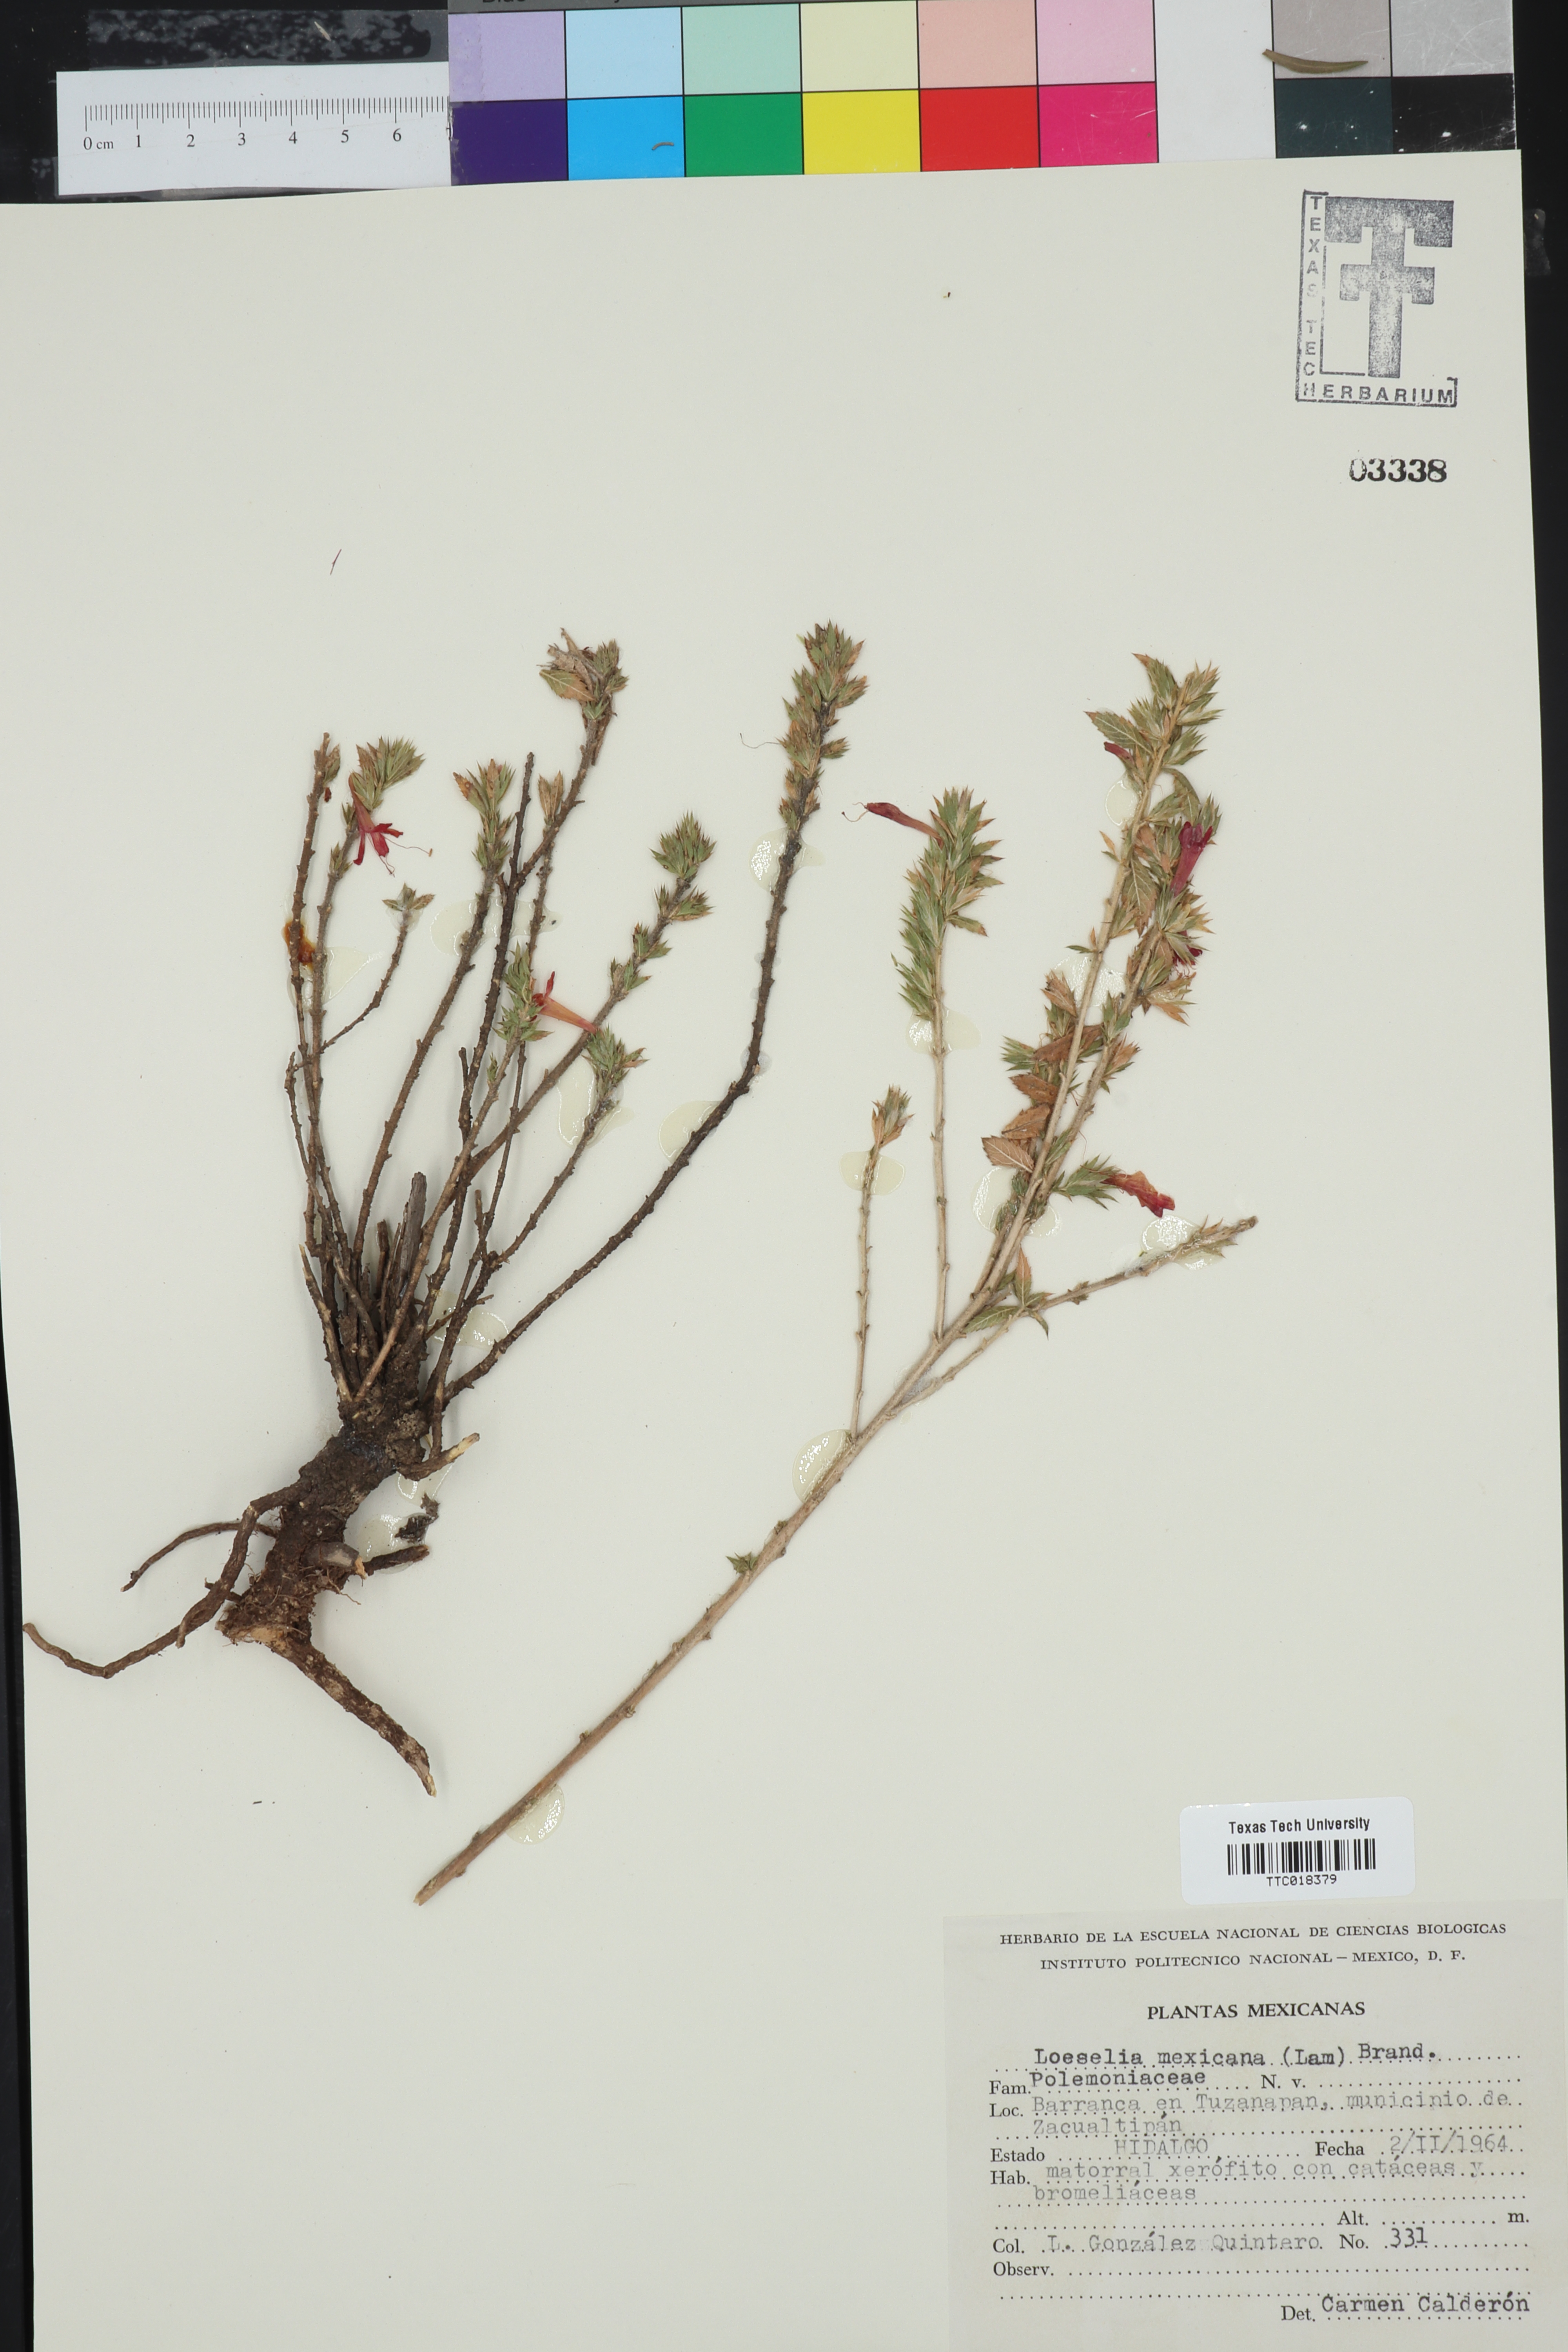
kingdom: Plantae
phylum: Tracheophyta
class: Magnoliopsida
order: Ericales
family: Polemoniaceae
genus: Langloisia
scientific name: Langloisia
